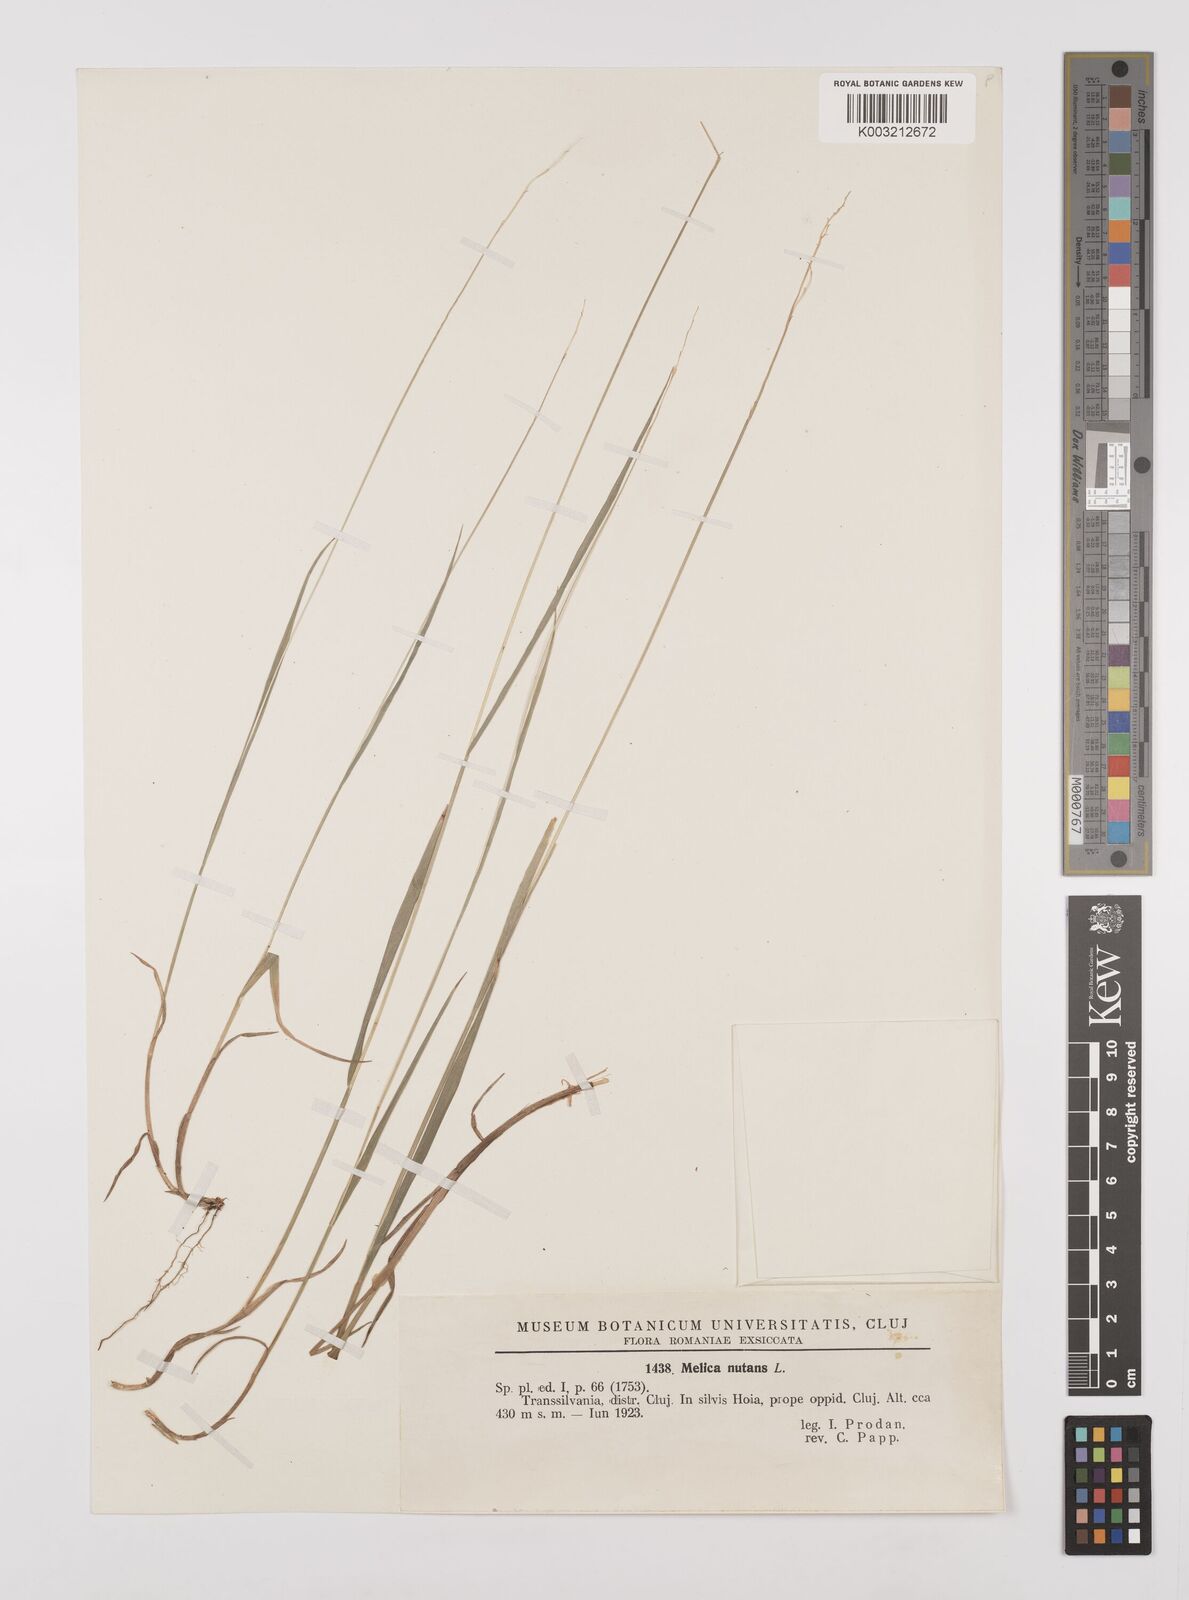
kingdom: Plantae
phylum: Tracheophyta
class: Liliopsida
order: Poales
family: Poaceae
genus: Melica
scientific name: Melica nutans
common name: Mountain melick
